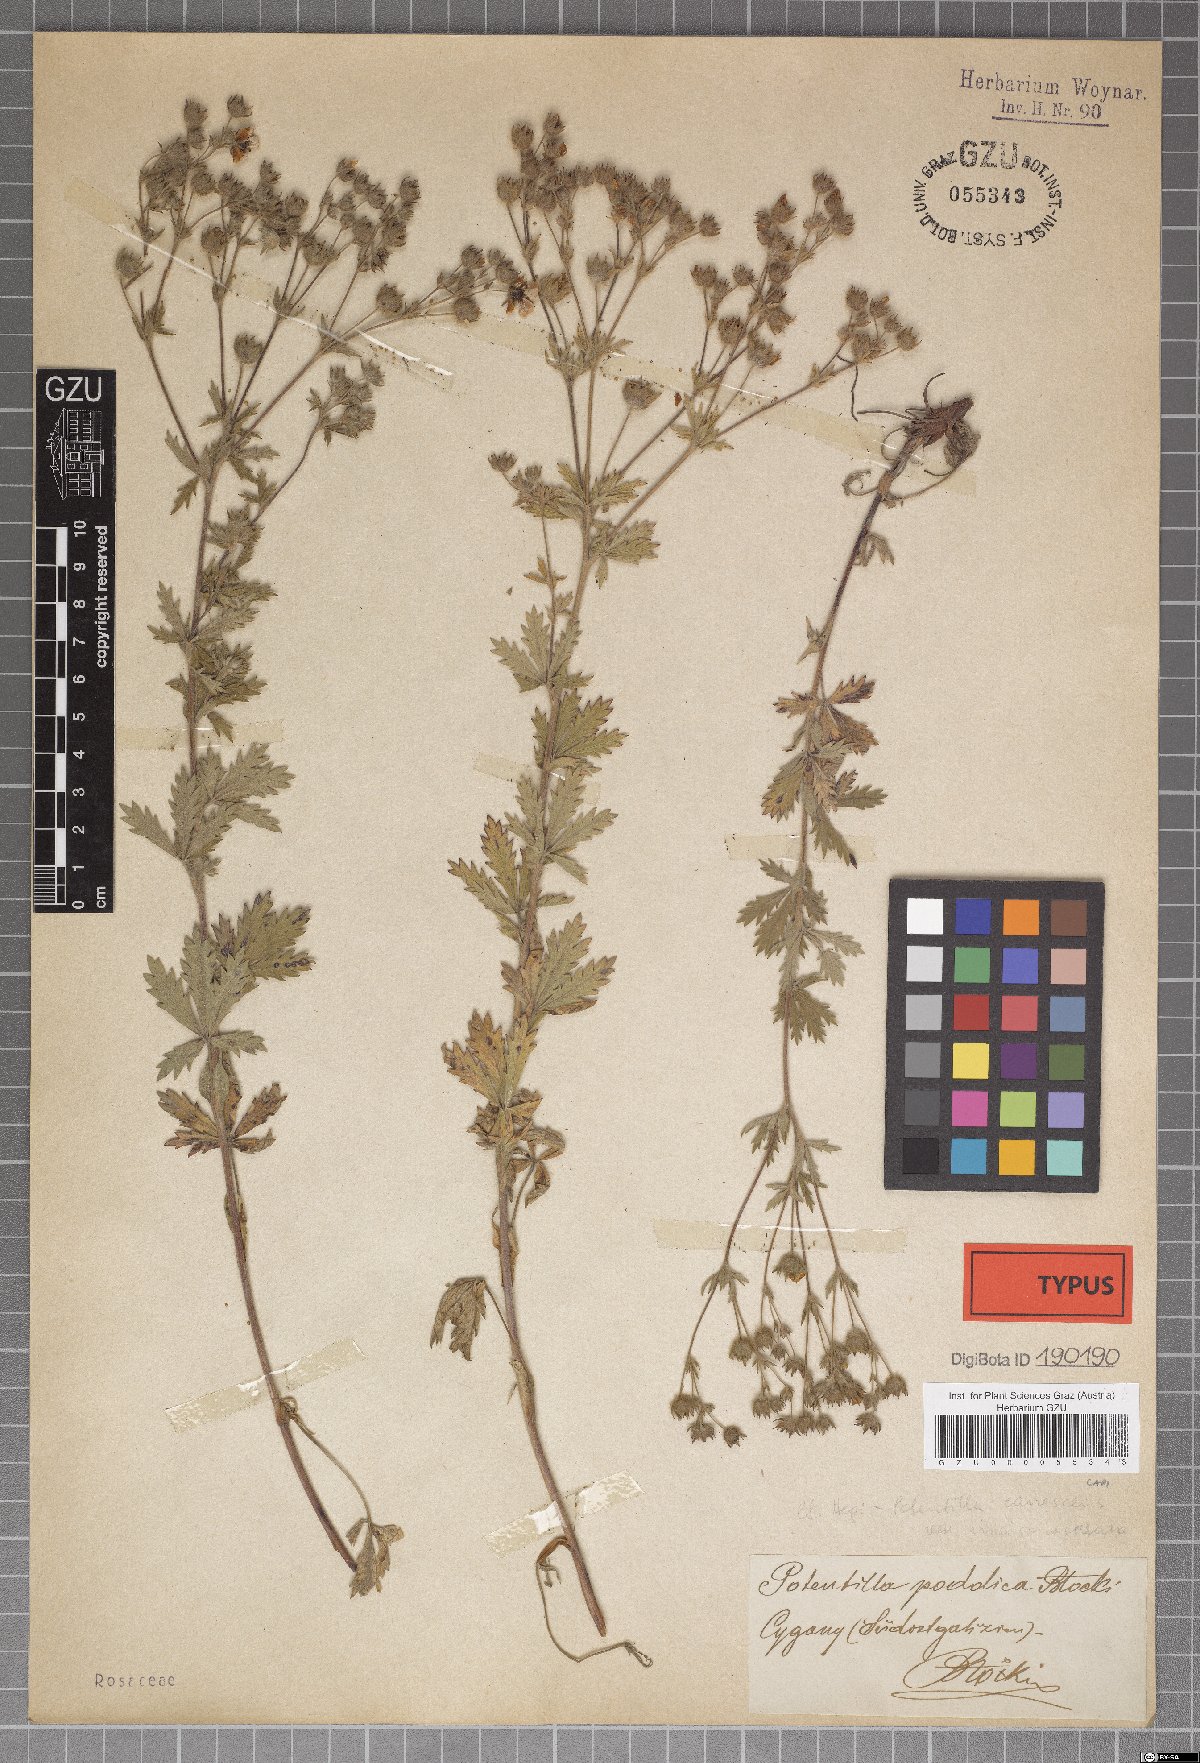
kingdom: Plantae
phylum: Tracheophyta
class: Magnoliopsida
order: Rosales
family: Rosaceae
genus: Potentilla
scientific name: Potentilla inclinata
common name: Grey cinquefoil
